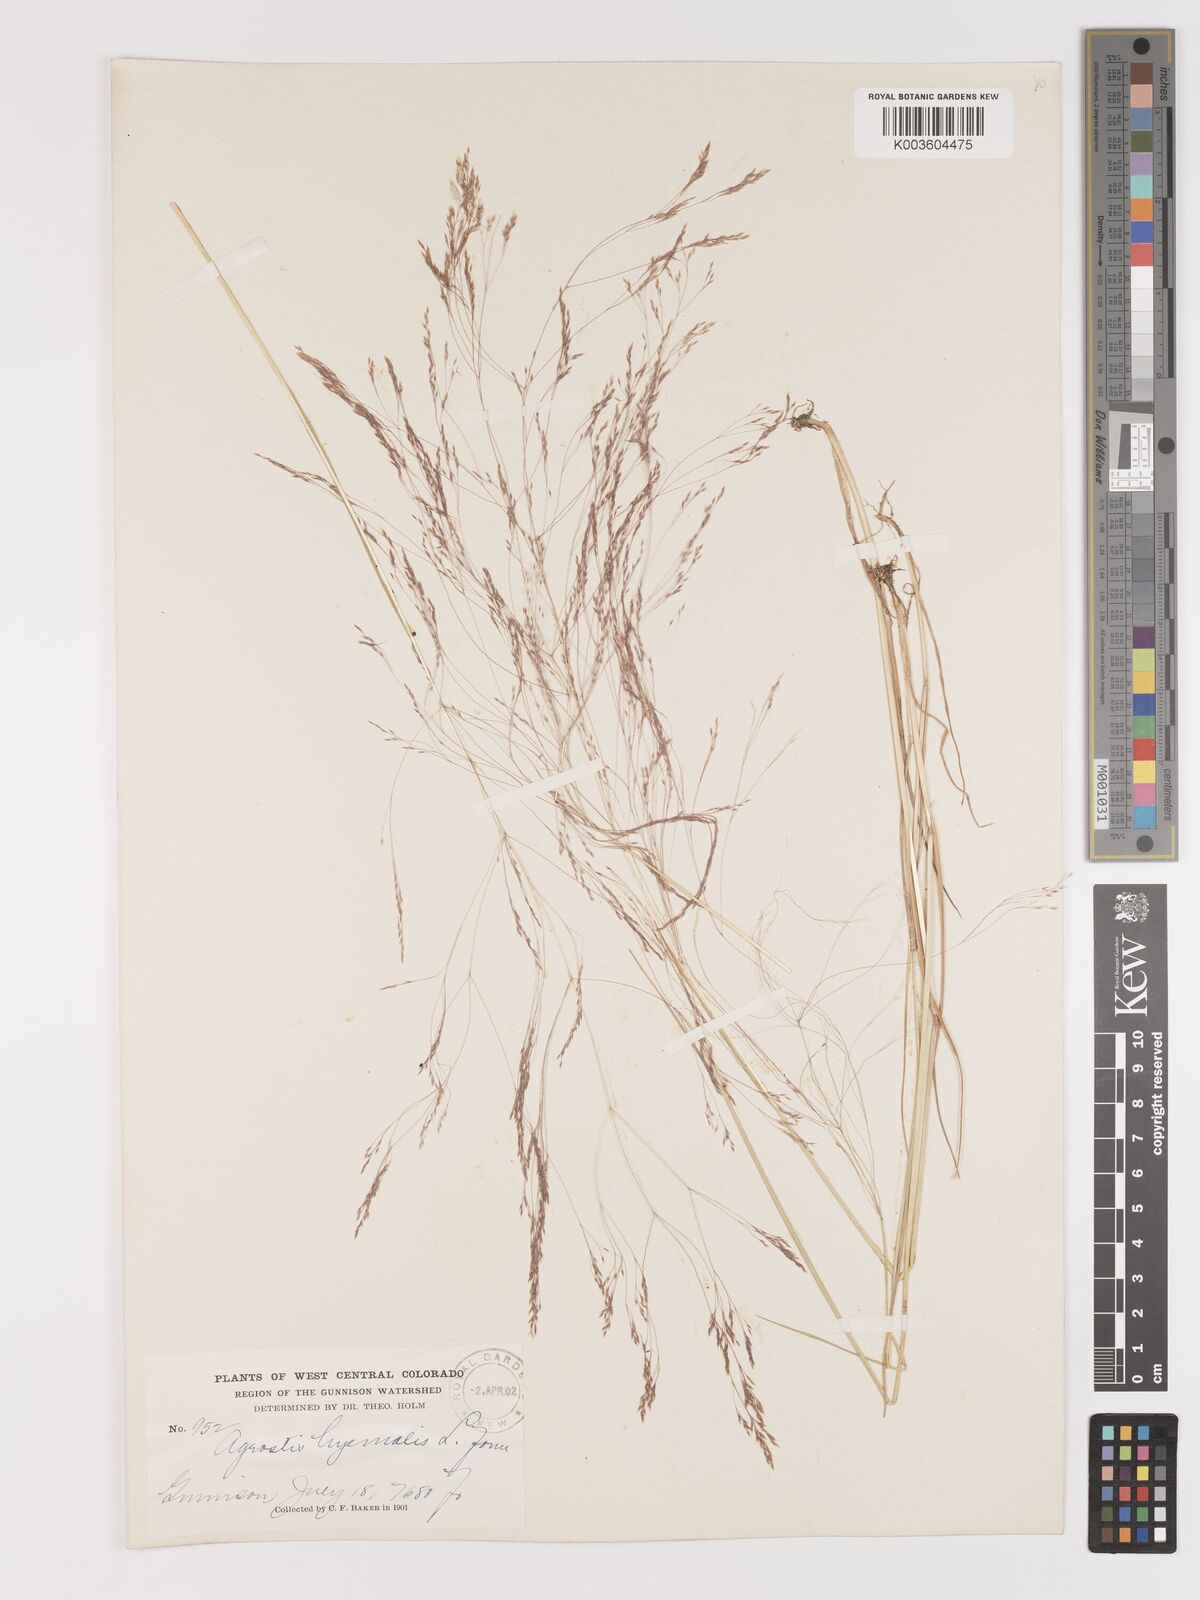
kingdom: Plantae
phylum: Tracheophyta
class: Liliopsida
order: Poales
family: Poaceae
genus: Agrostis
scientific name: Agrostis hyemalis
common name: Small bent
